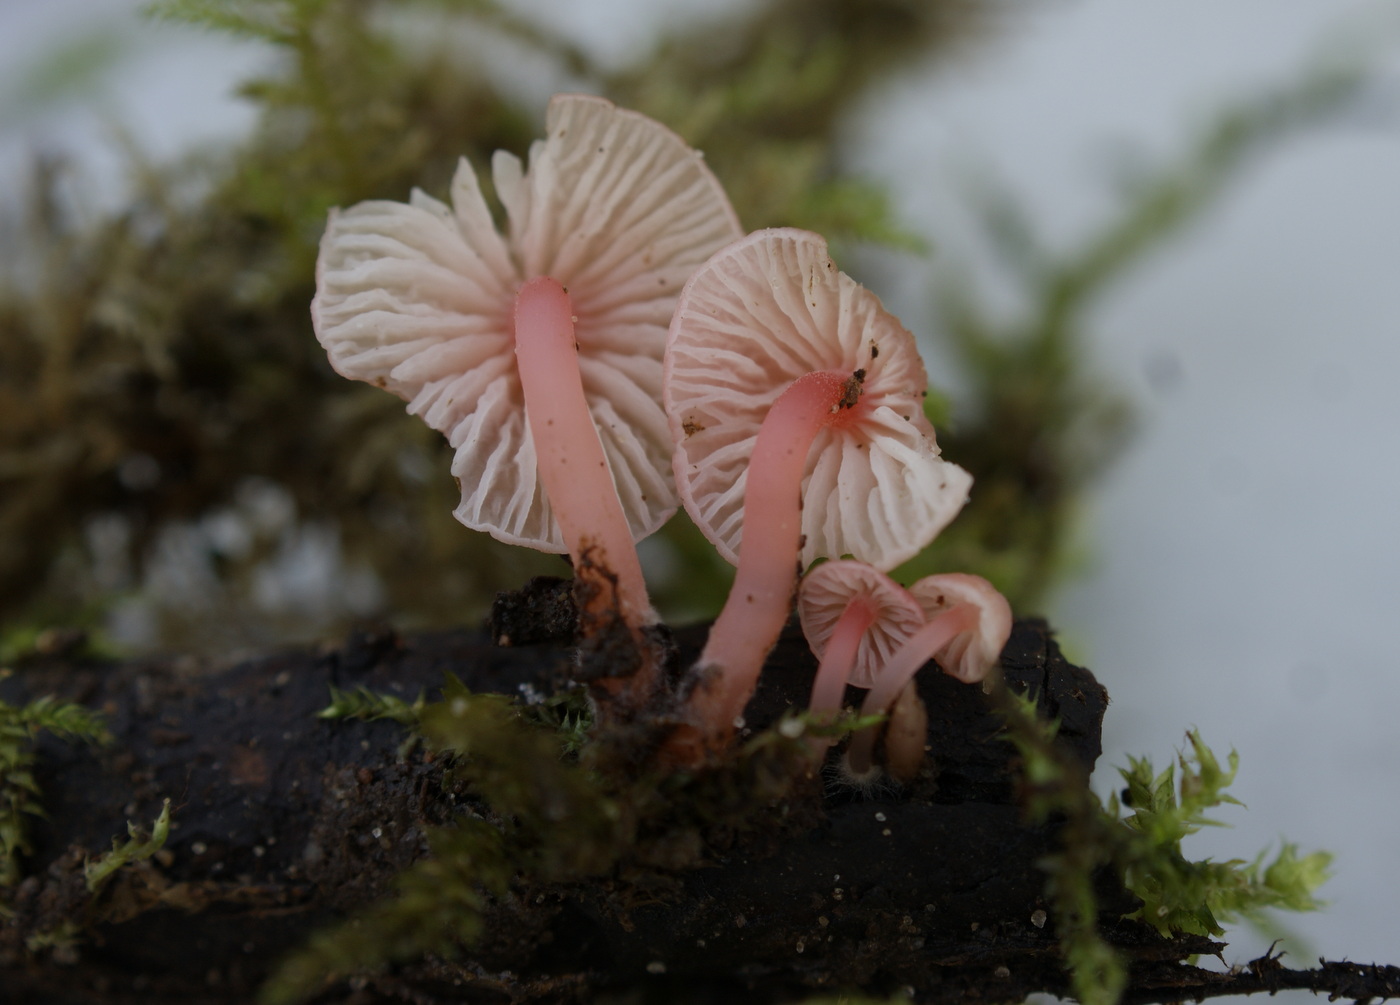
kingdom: Fungi
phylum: Basidiomycota
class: Agaricomycetes
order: Agaricales
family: Mycenaceae
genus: Mycena
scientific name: Mycena coccinea
